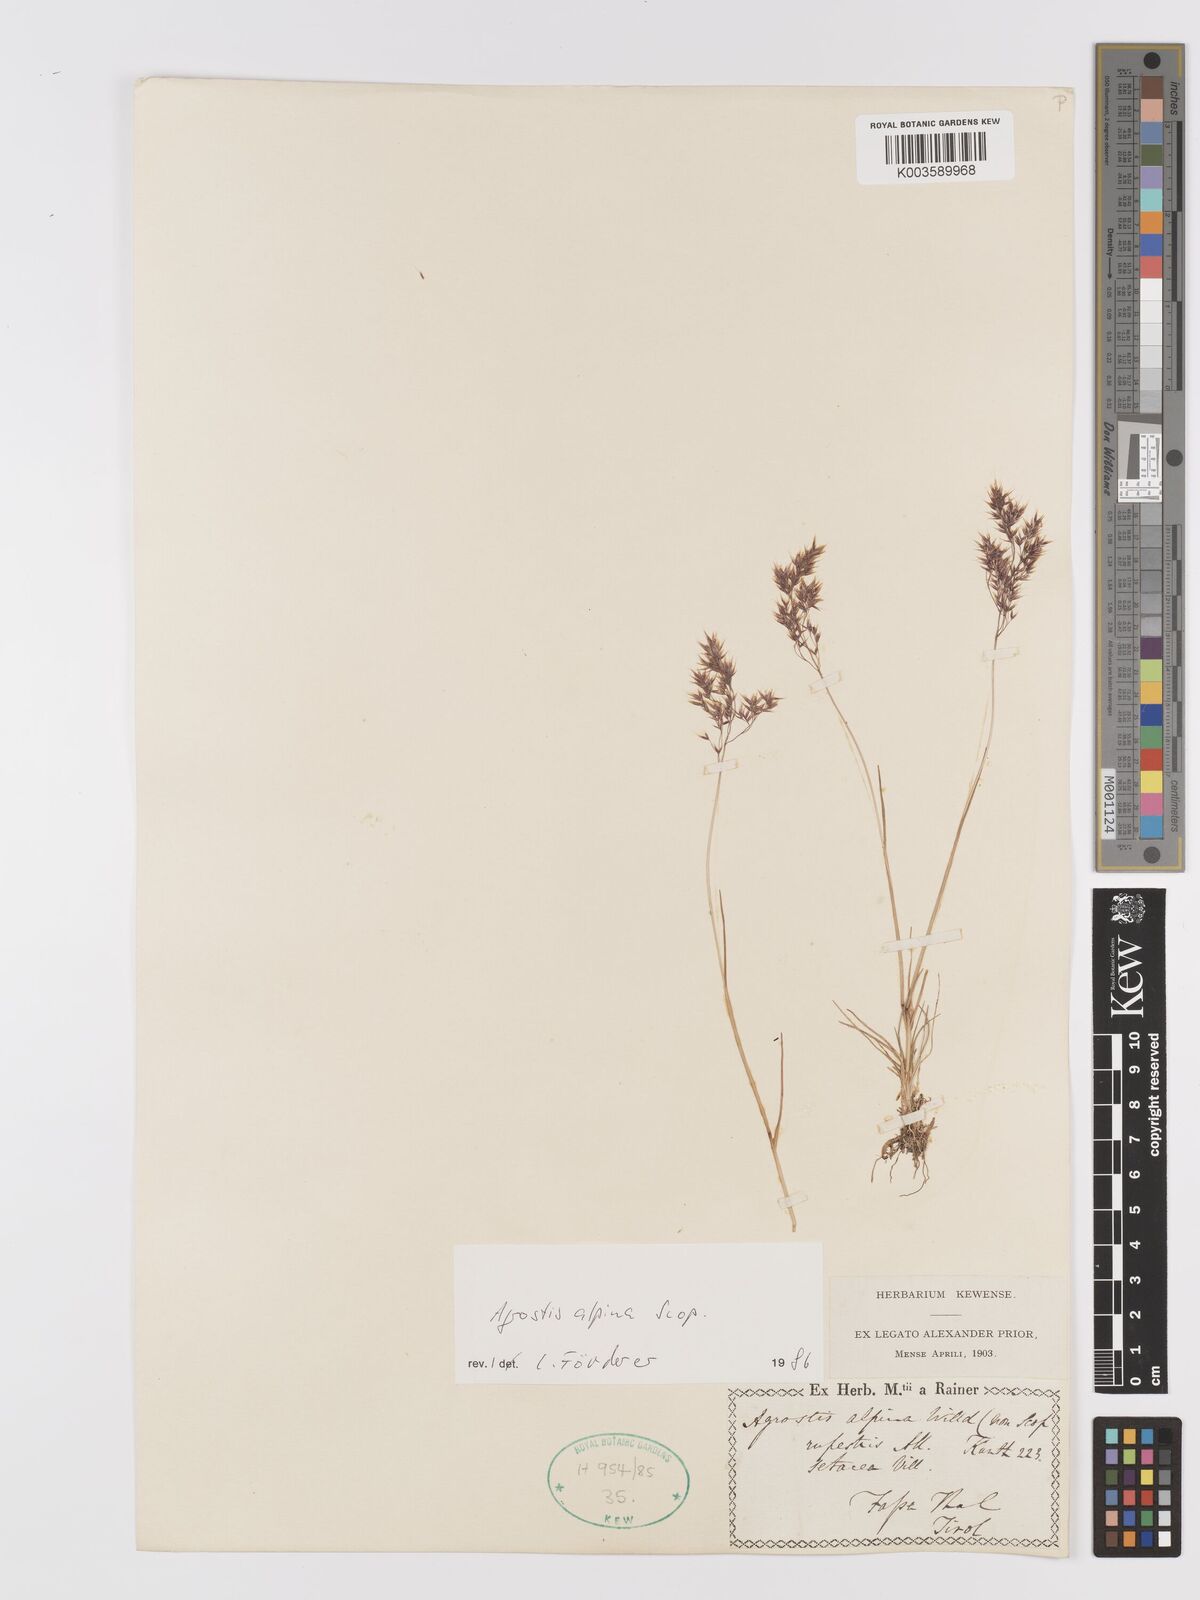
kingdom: Plantae
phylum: Tracheophyta
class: Liliopsida
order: Poales
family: Poaceae
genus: Alpagrostis
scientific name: Alpagrostis alpina
